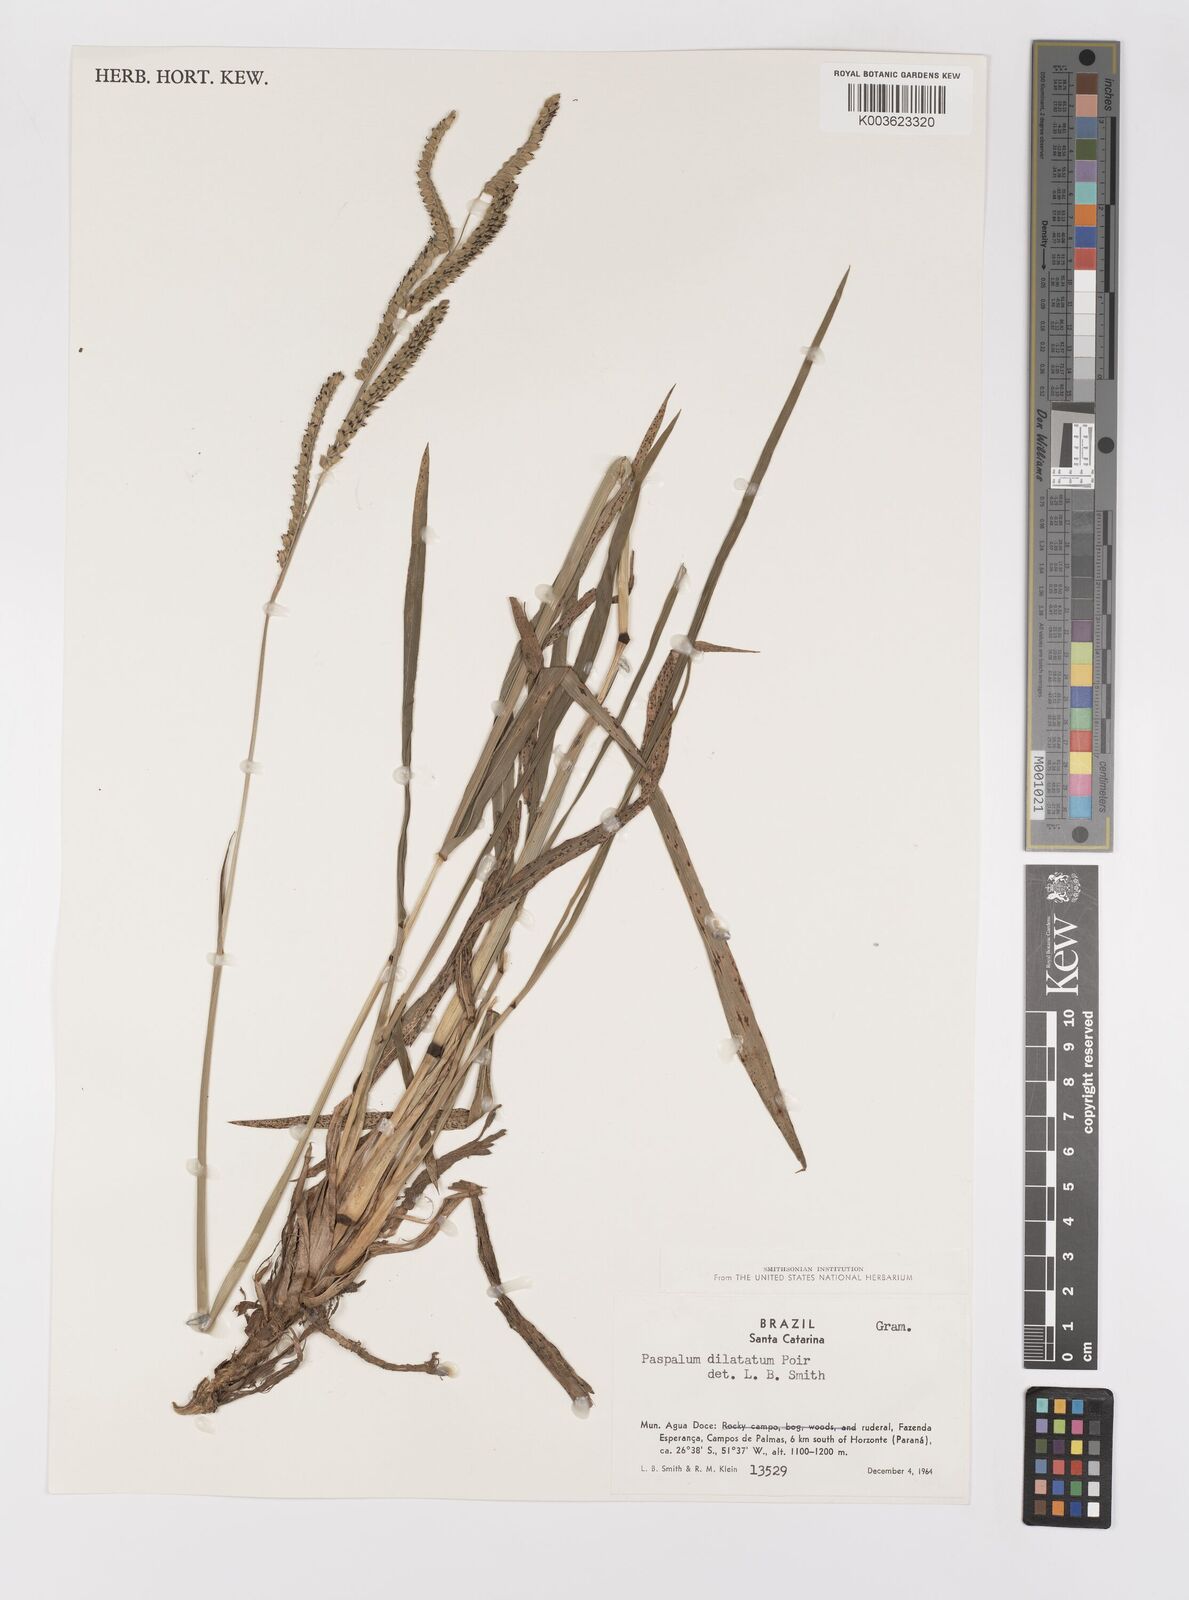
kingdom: Plantae
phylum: Tracheophyta
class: Liliopsida
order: Poales
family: Poaceae
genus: Paspalum
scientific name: Paspalum dilatatum
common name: Dallisgrass
